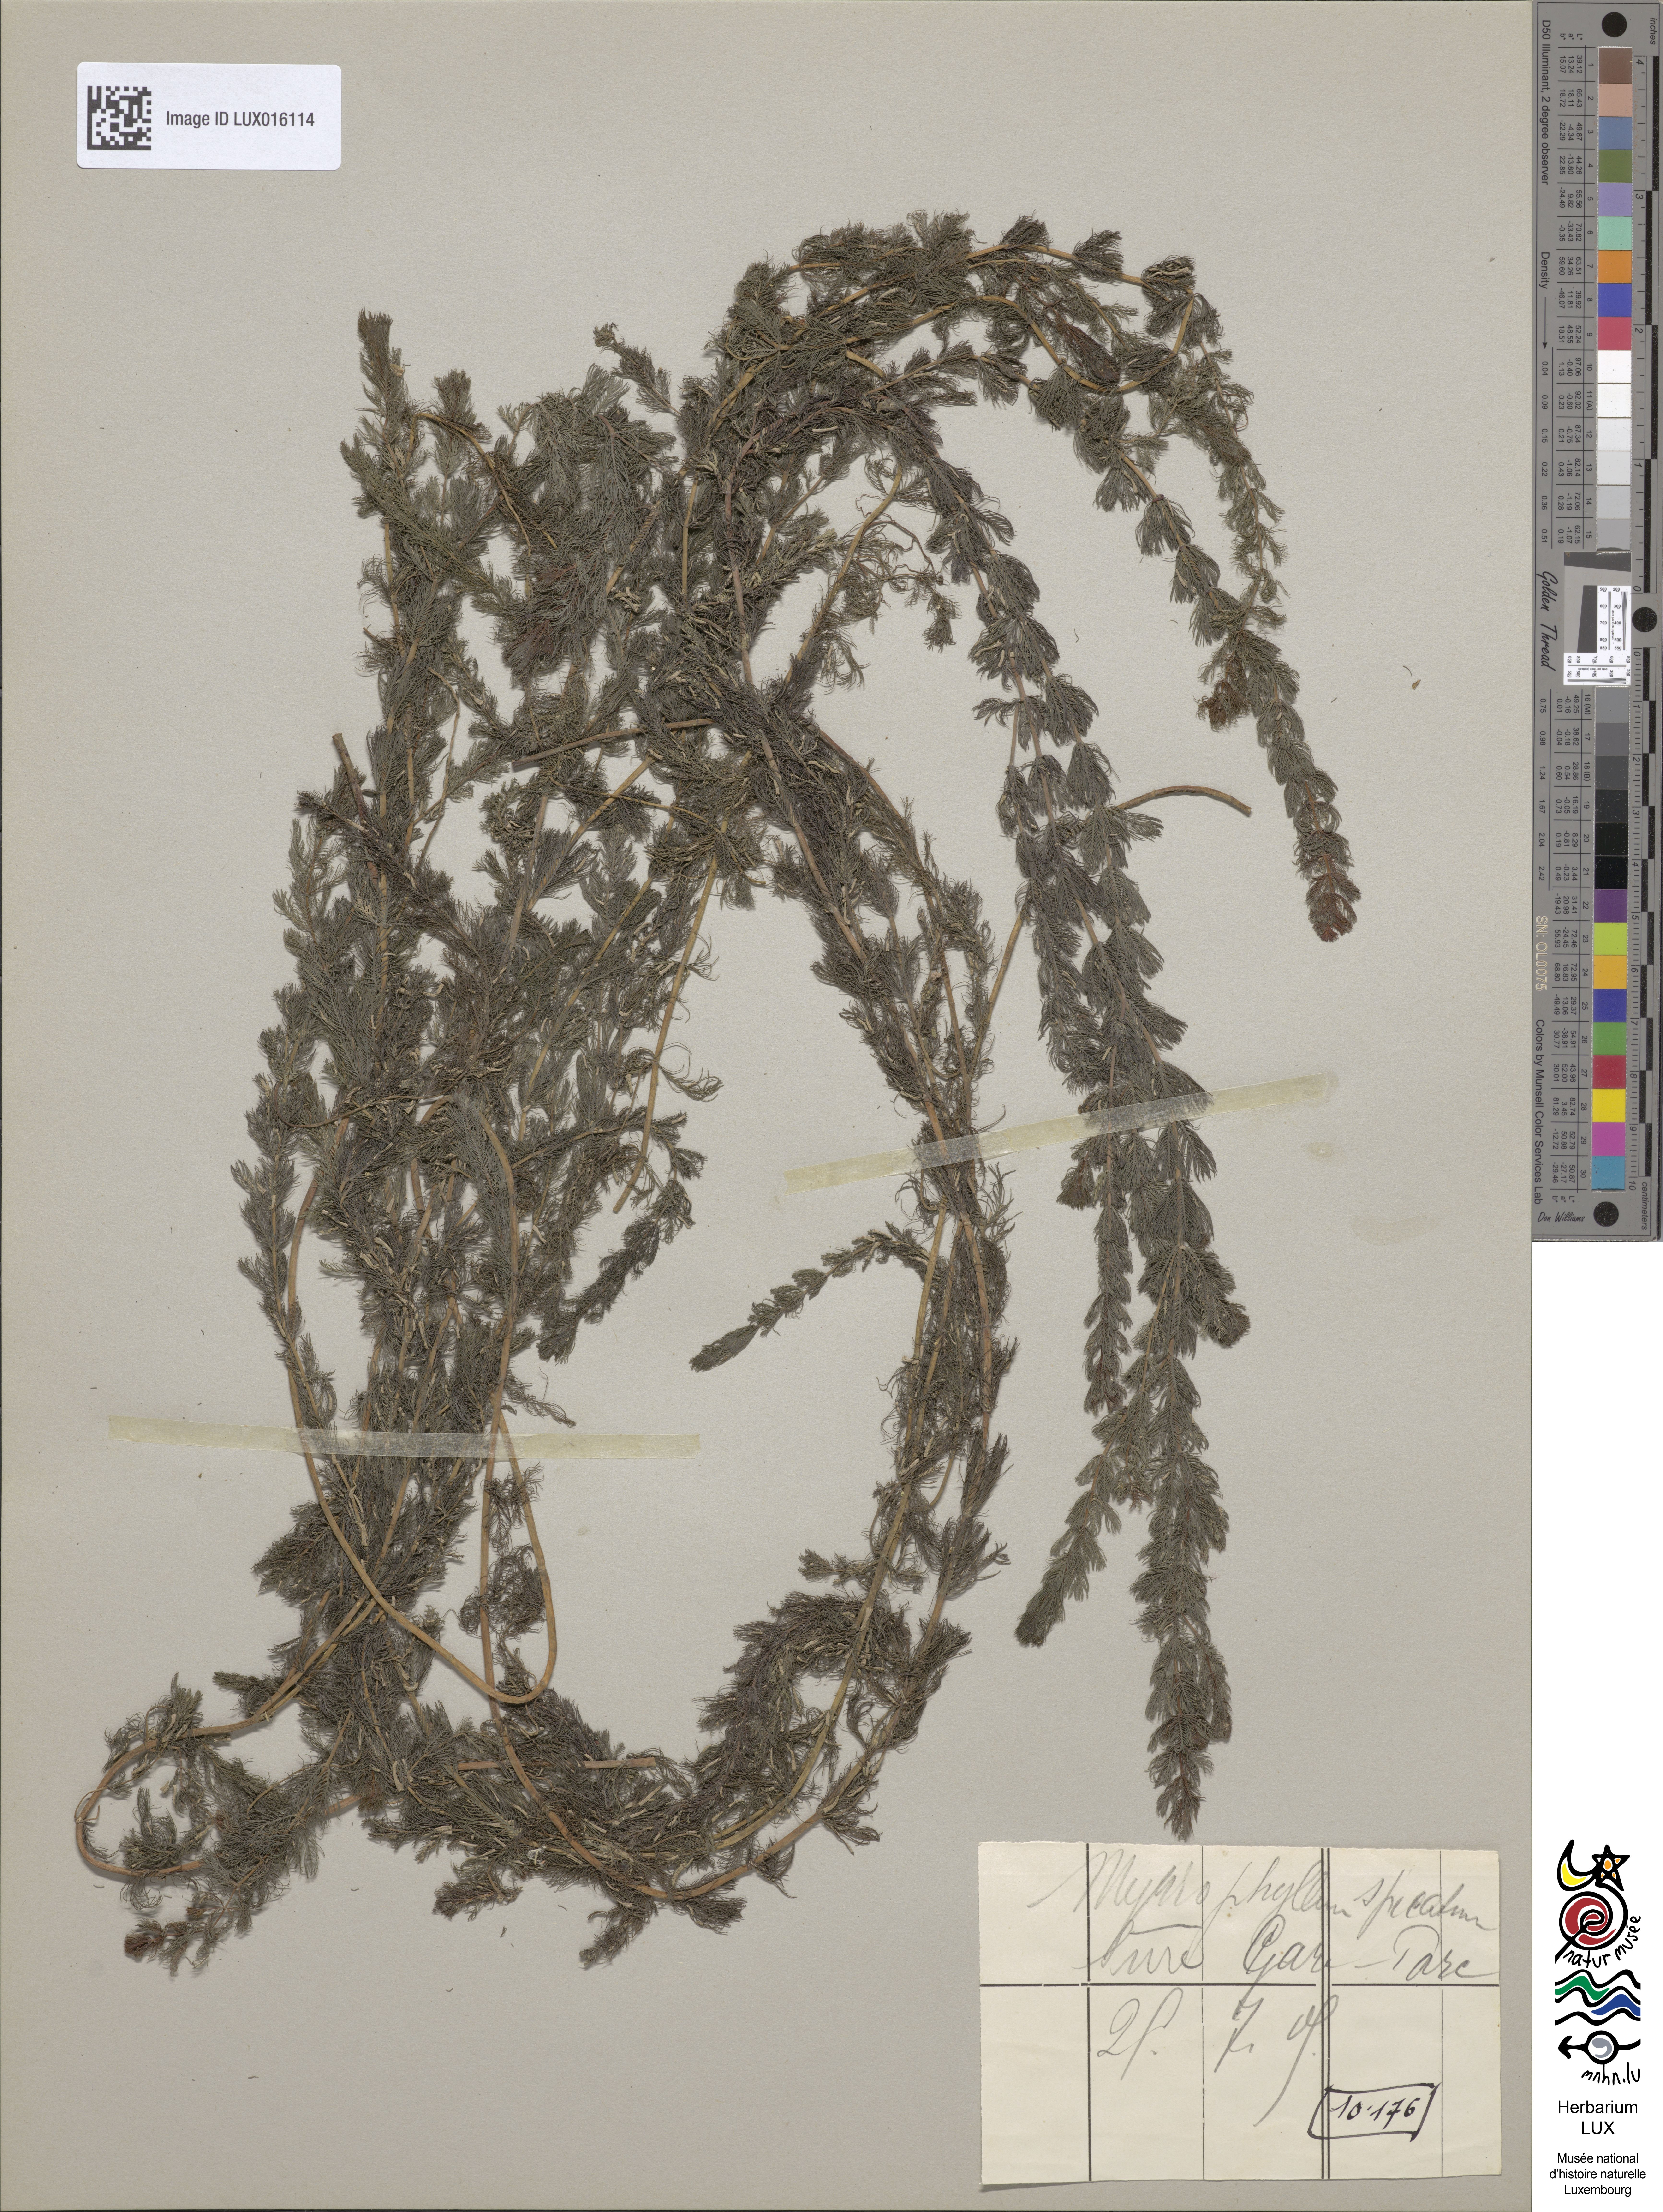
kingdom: Plantae
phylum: Tracheophyta
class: Magnoliopsida
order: Saxifragales
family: Haloragaceae
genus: Myriophyllum
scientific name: Myriophyllum spicatum
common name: Spiked water-milfoil
